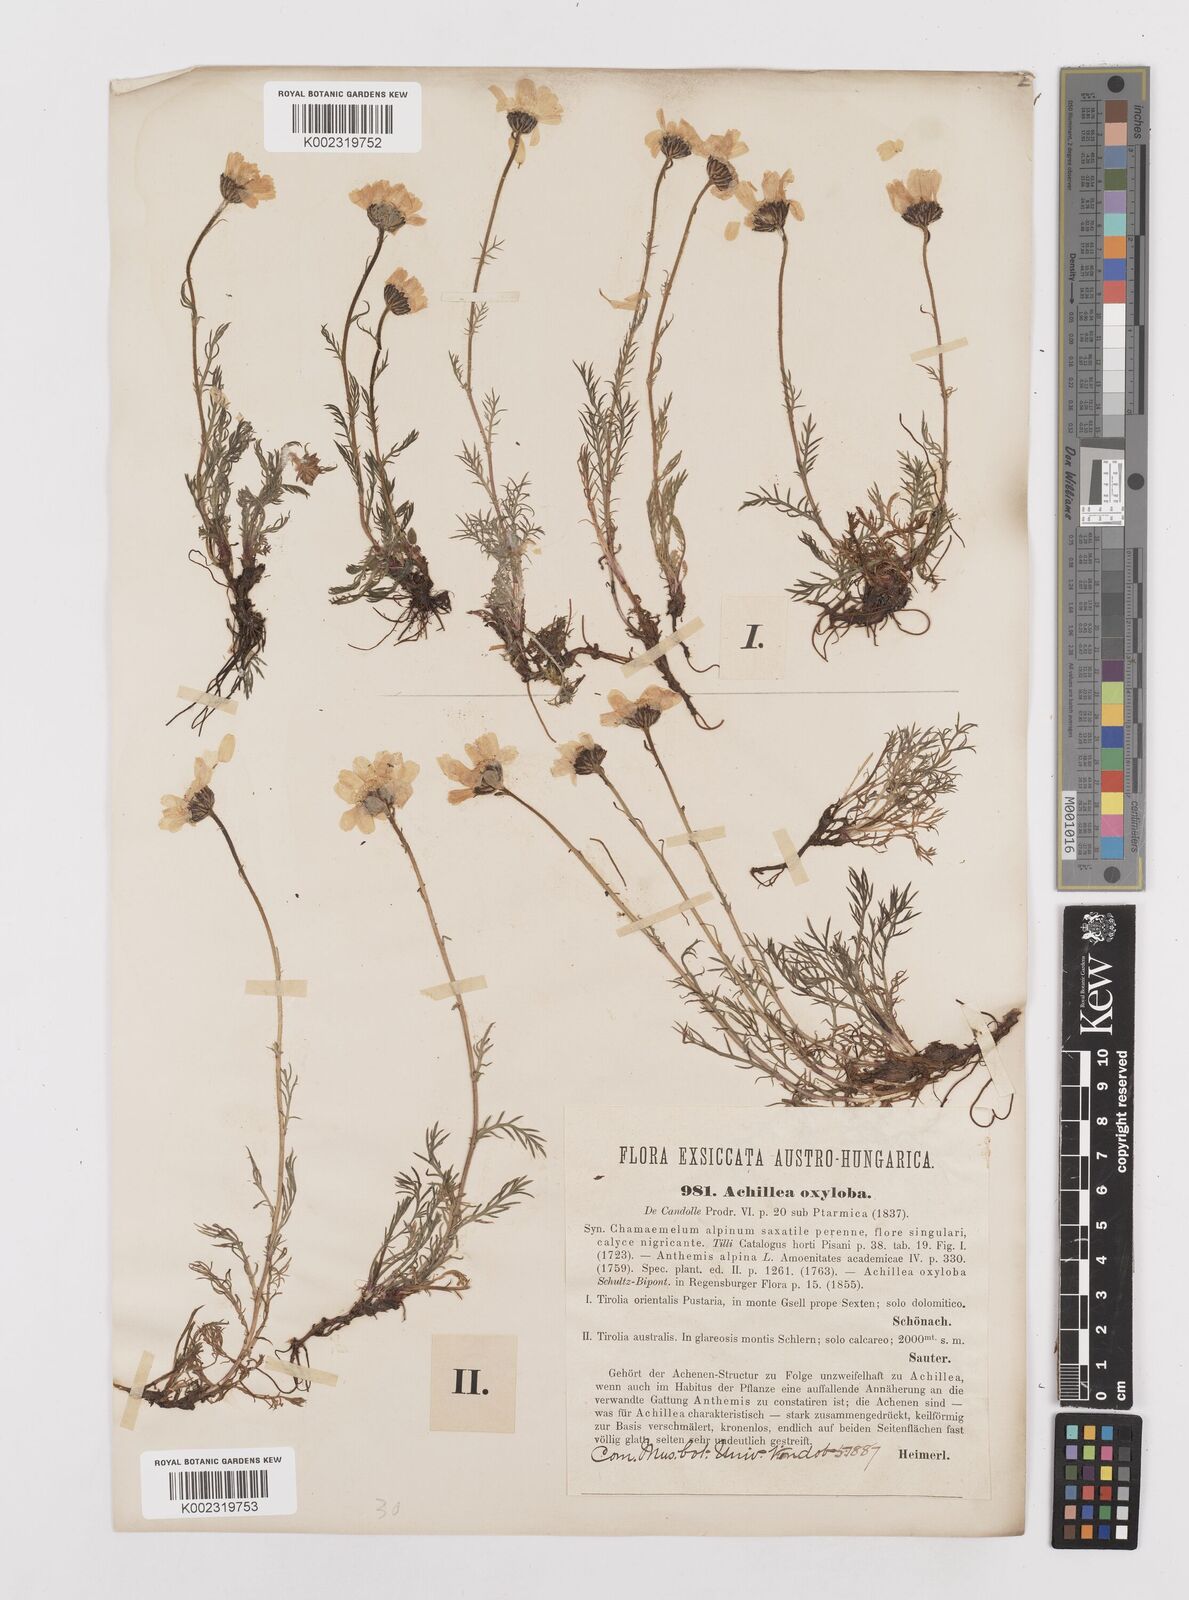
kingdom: Plantae
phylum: Tracheophyta
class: Magnoliopsida
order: Asterales
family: Asteraceae
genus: Achillea
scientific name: Achillea oxyloba
